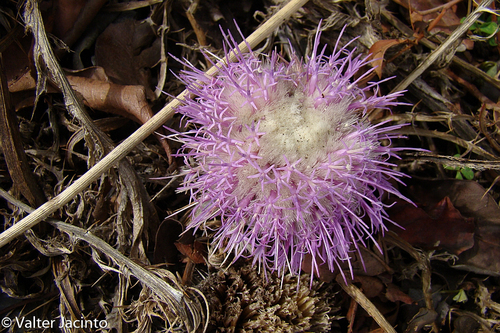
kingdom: Plantae
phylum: Tracheophyta
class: Magnoliopsida
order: Asterales
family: Asteraceae
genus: Chamaeleon
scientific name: Chamaeleon gummifer
